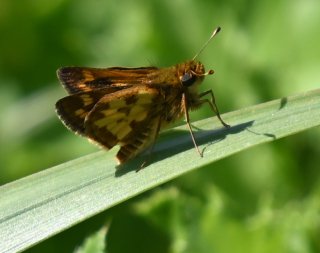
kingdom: Animalia
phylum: Arthropoda
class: Insecta
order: Lepidoptera
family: Hesperiidae
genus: Polites
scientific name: Polites coras
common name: Peck's Skipper
